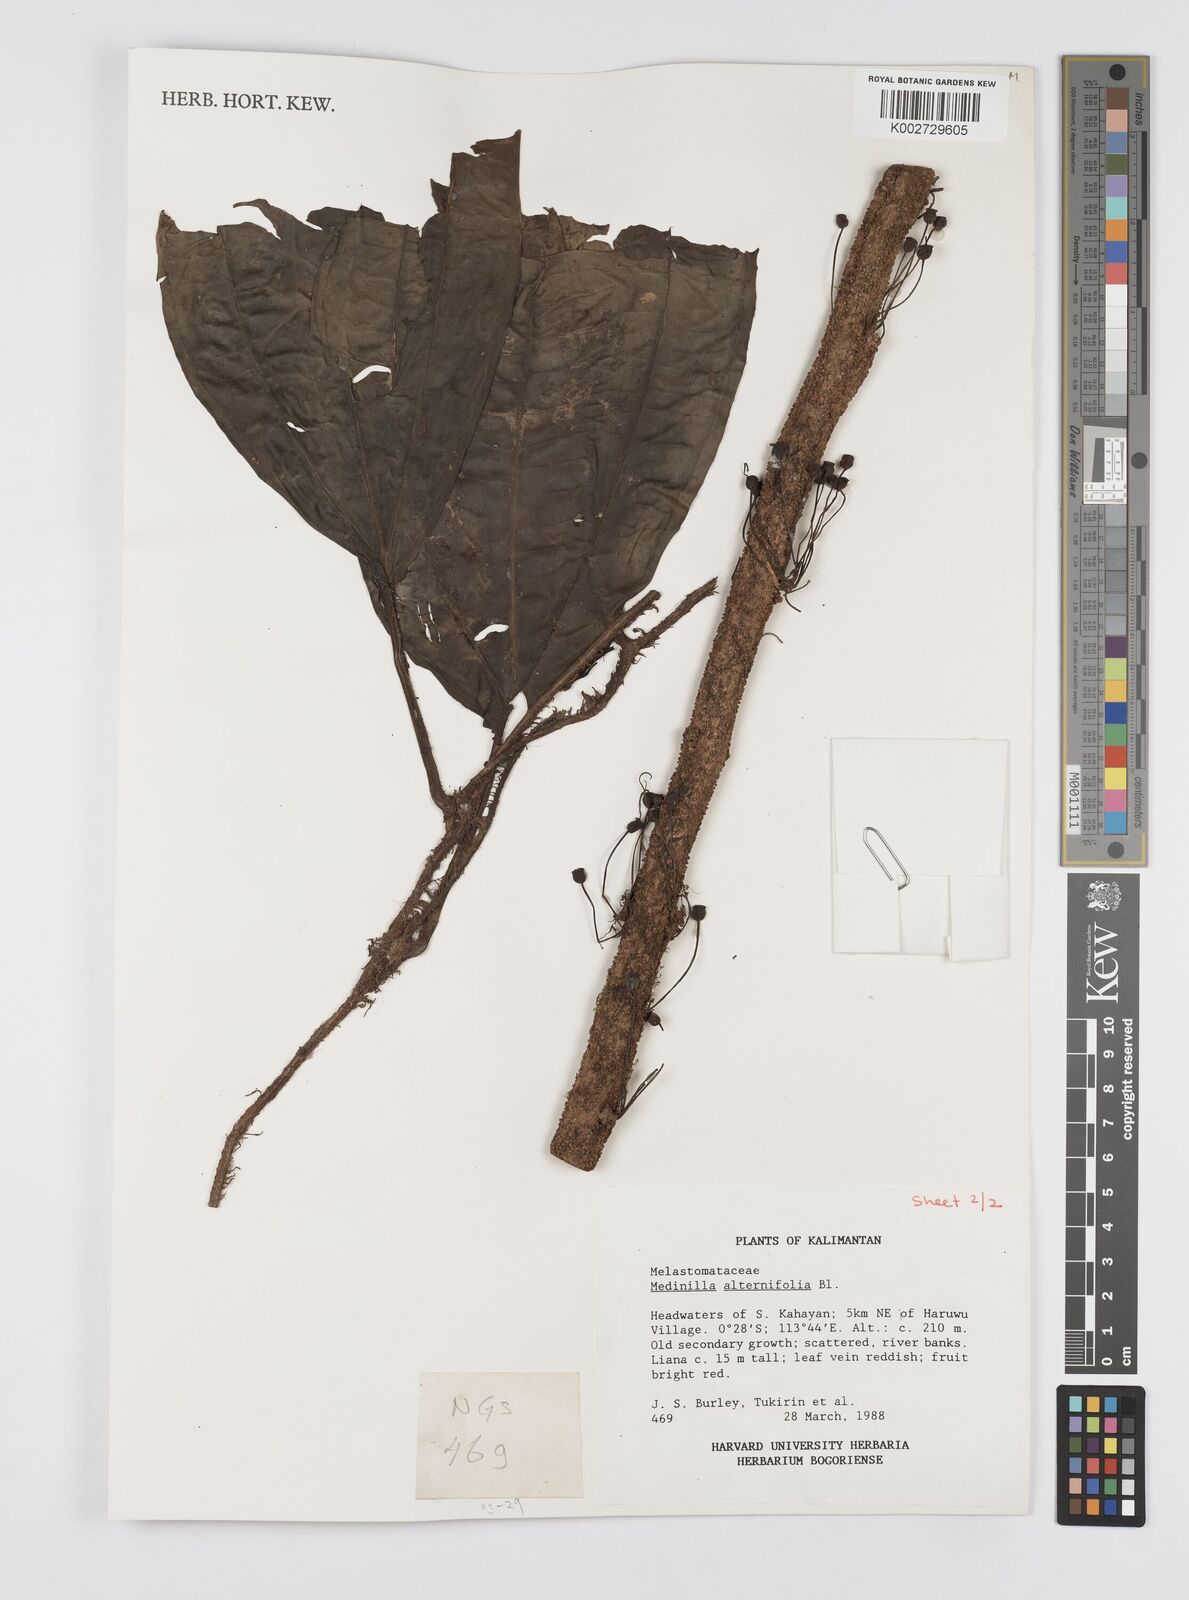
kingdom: Plantae
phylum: Tracheophyta
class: Magnoliopsida
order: Myrtales
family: Melastomataceae
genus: Heteroblemma
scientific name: Heteroblemma alternifolium
